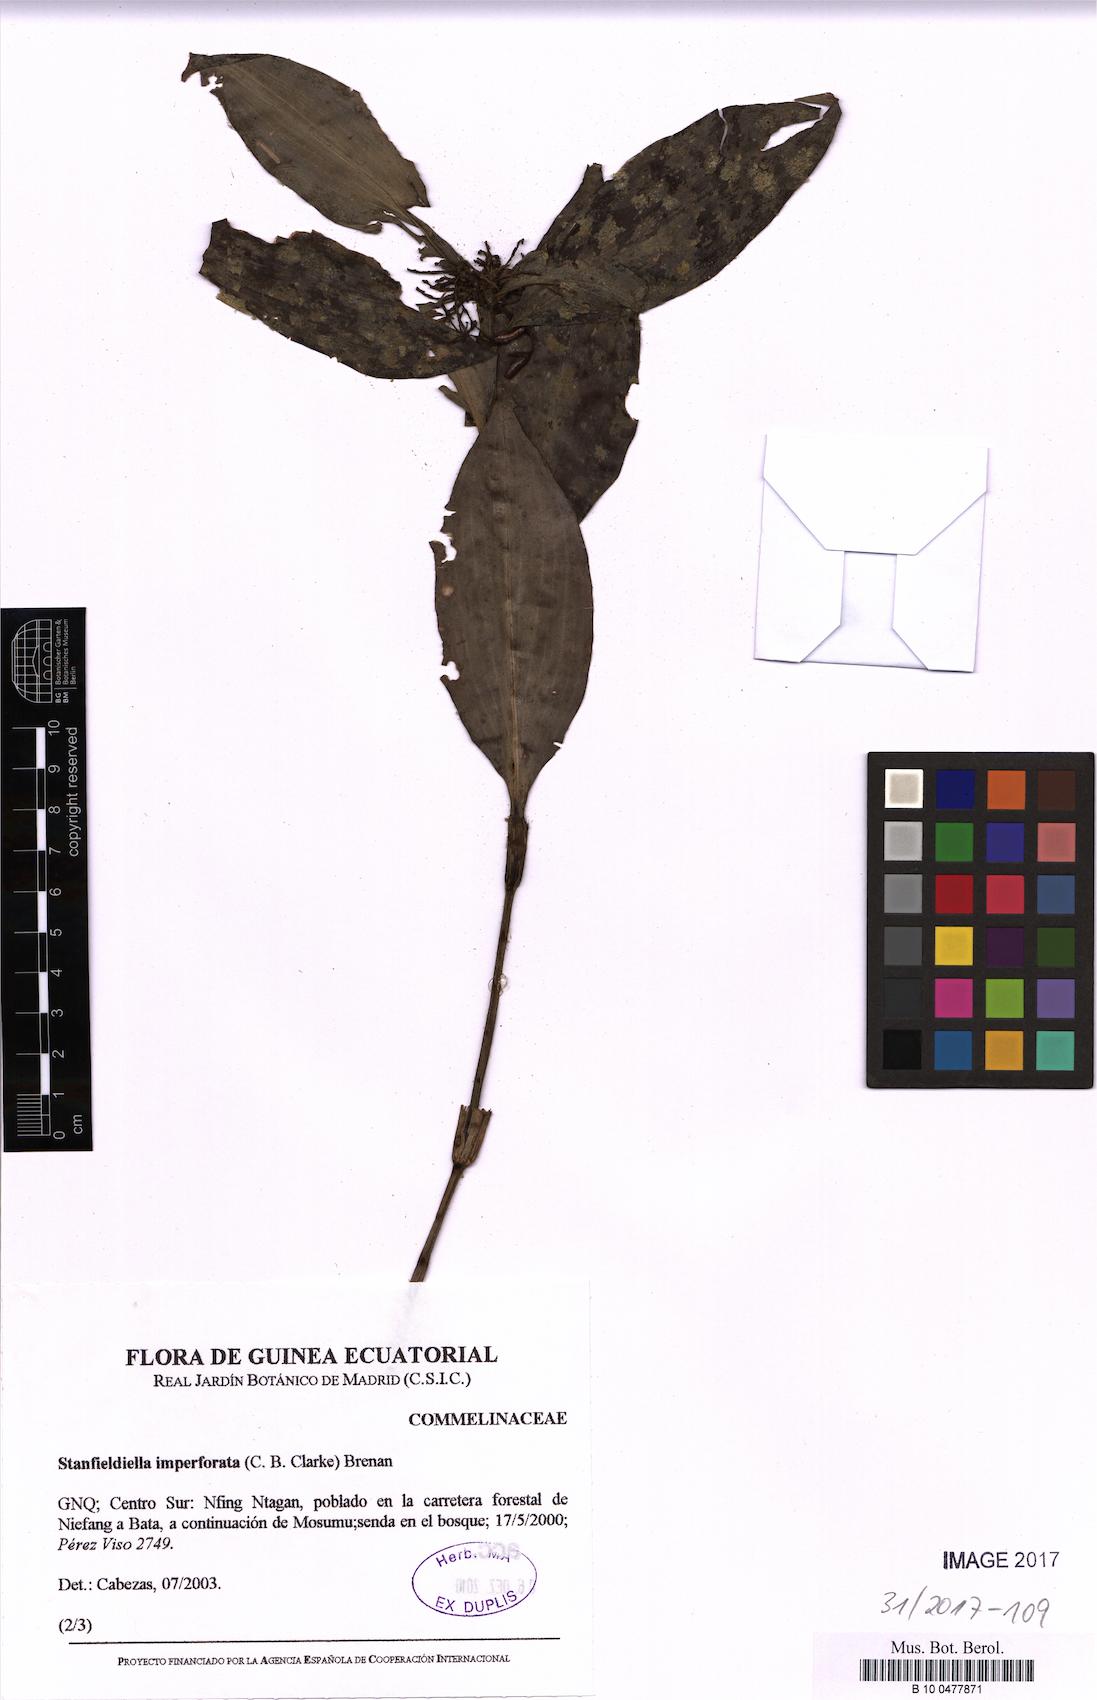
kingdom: Plantae
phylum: Tracheophyta
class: Liliopsida
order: Commelinales
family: Commelinaceae
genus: Stanfieldiella
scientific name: Stanfieldiella imperforata
